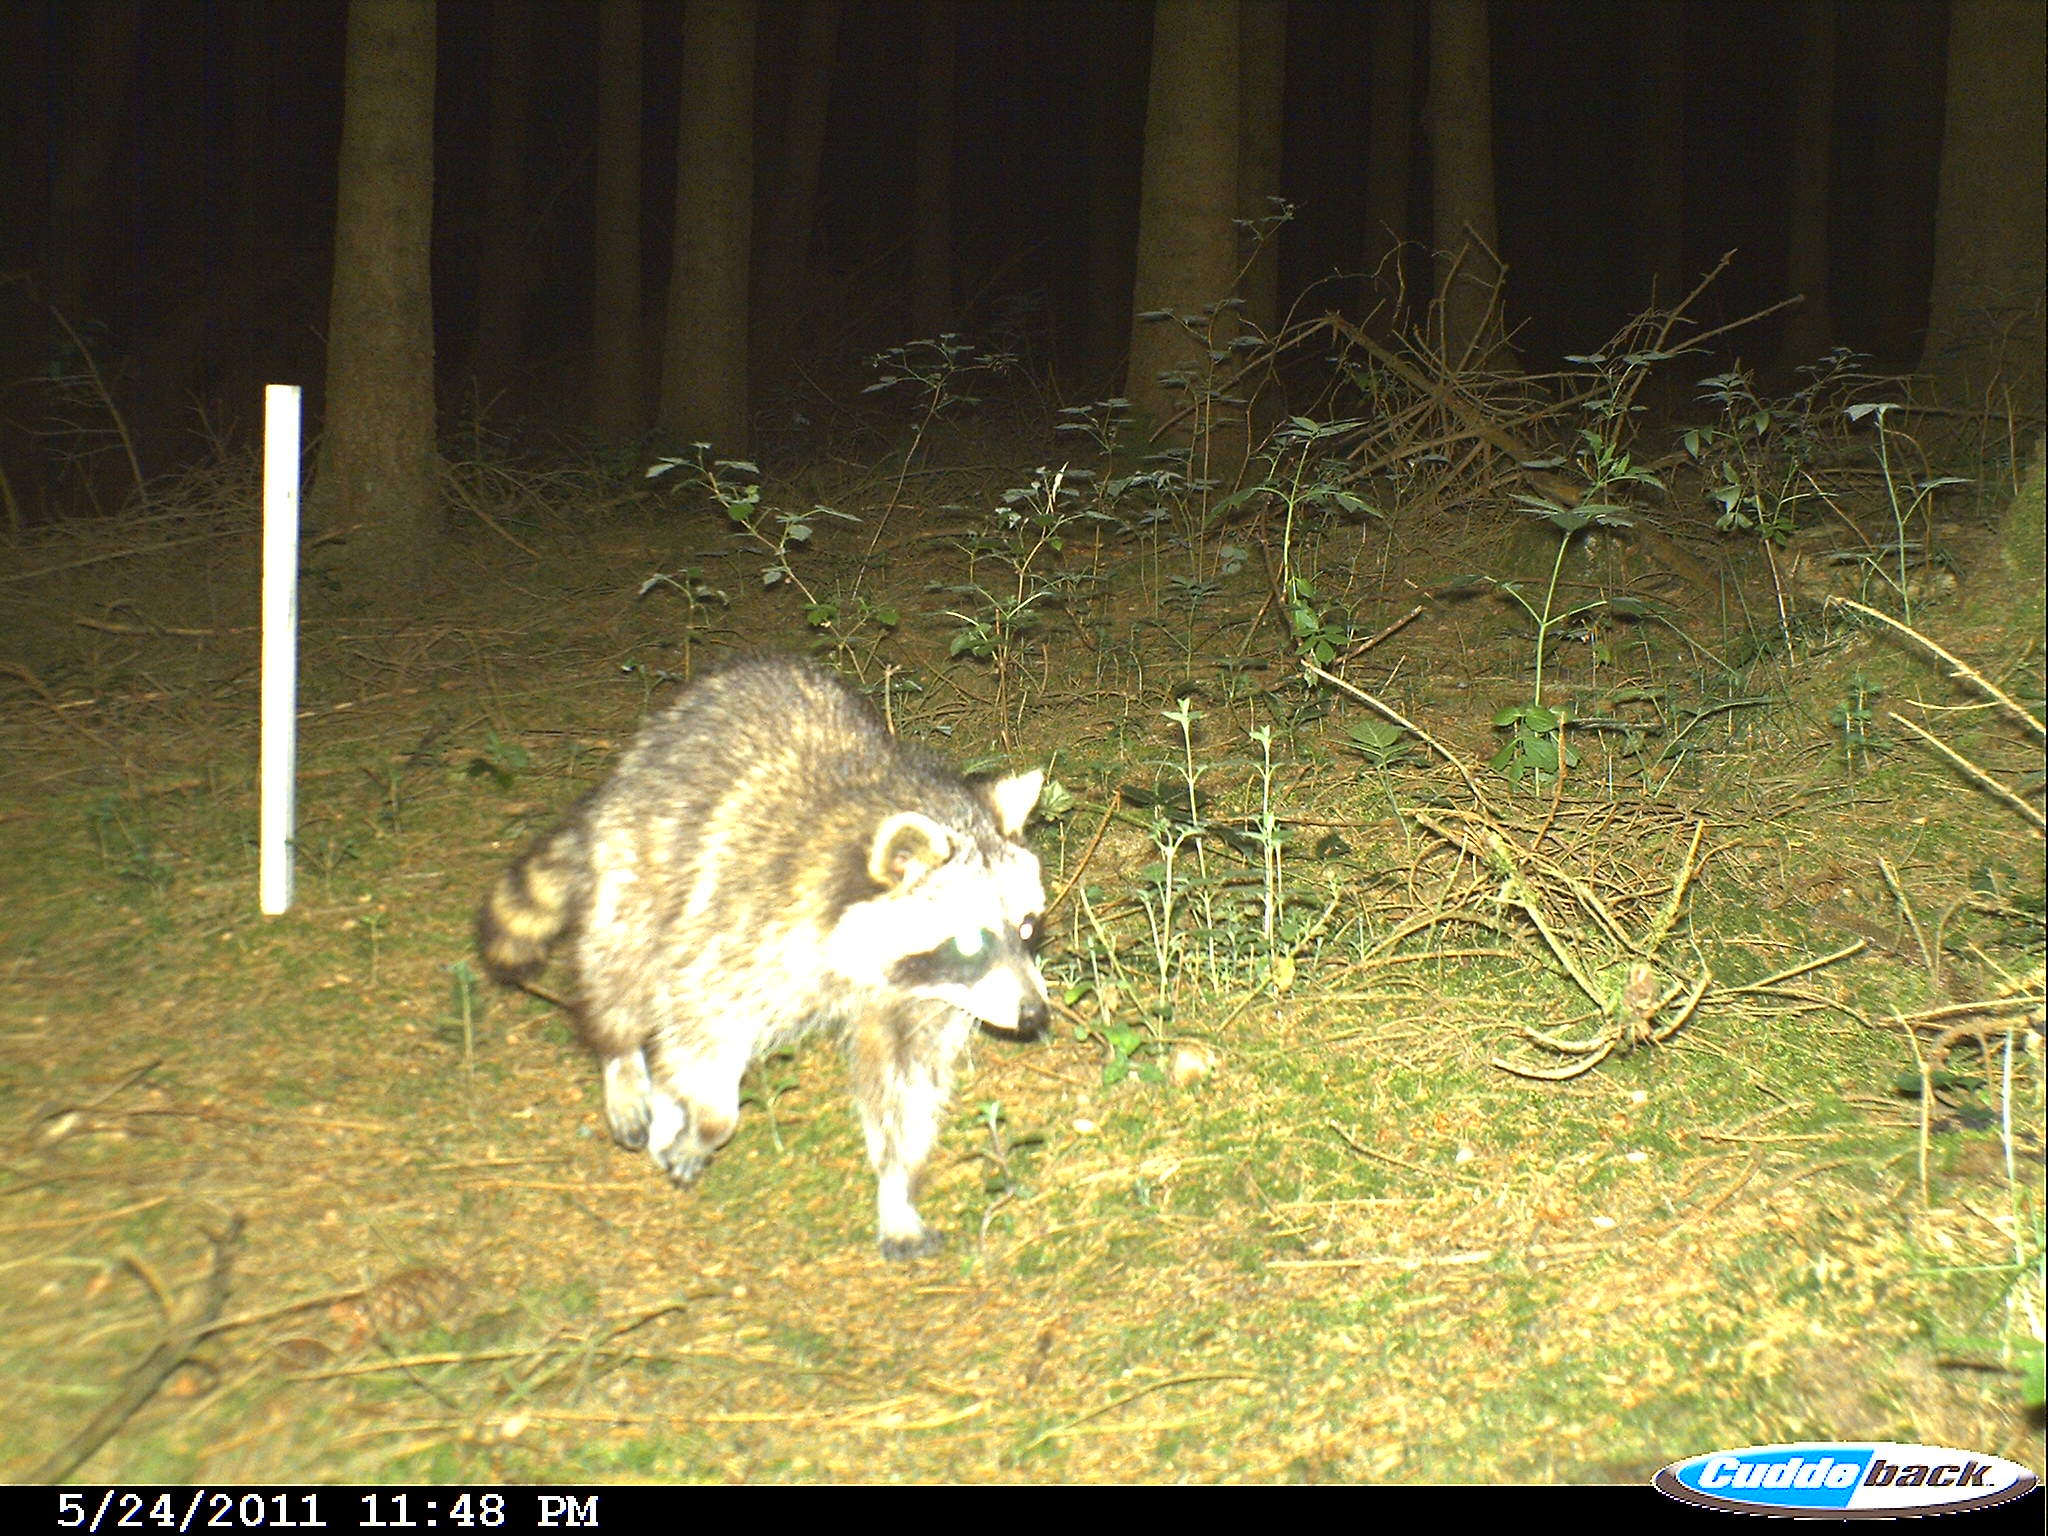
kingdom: Animalia
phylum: Chordata
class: Mammalia
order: Carnivora
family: Procyonidae
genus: Procyon
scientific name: Procyon lotor
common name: Raccoon
